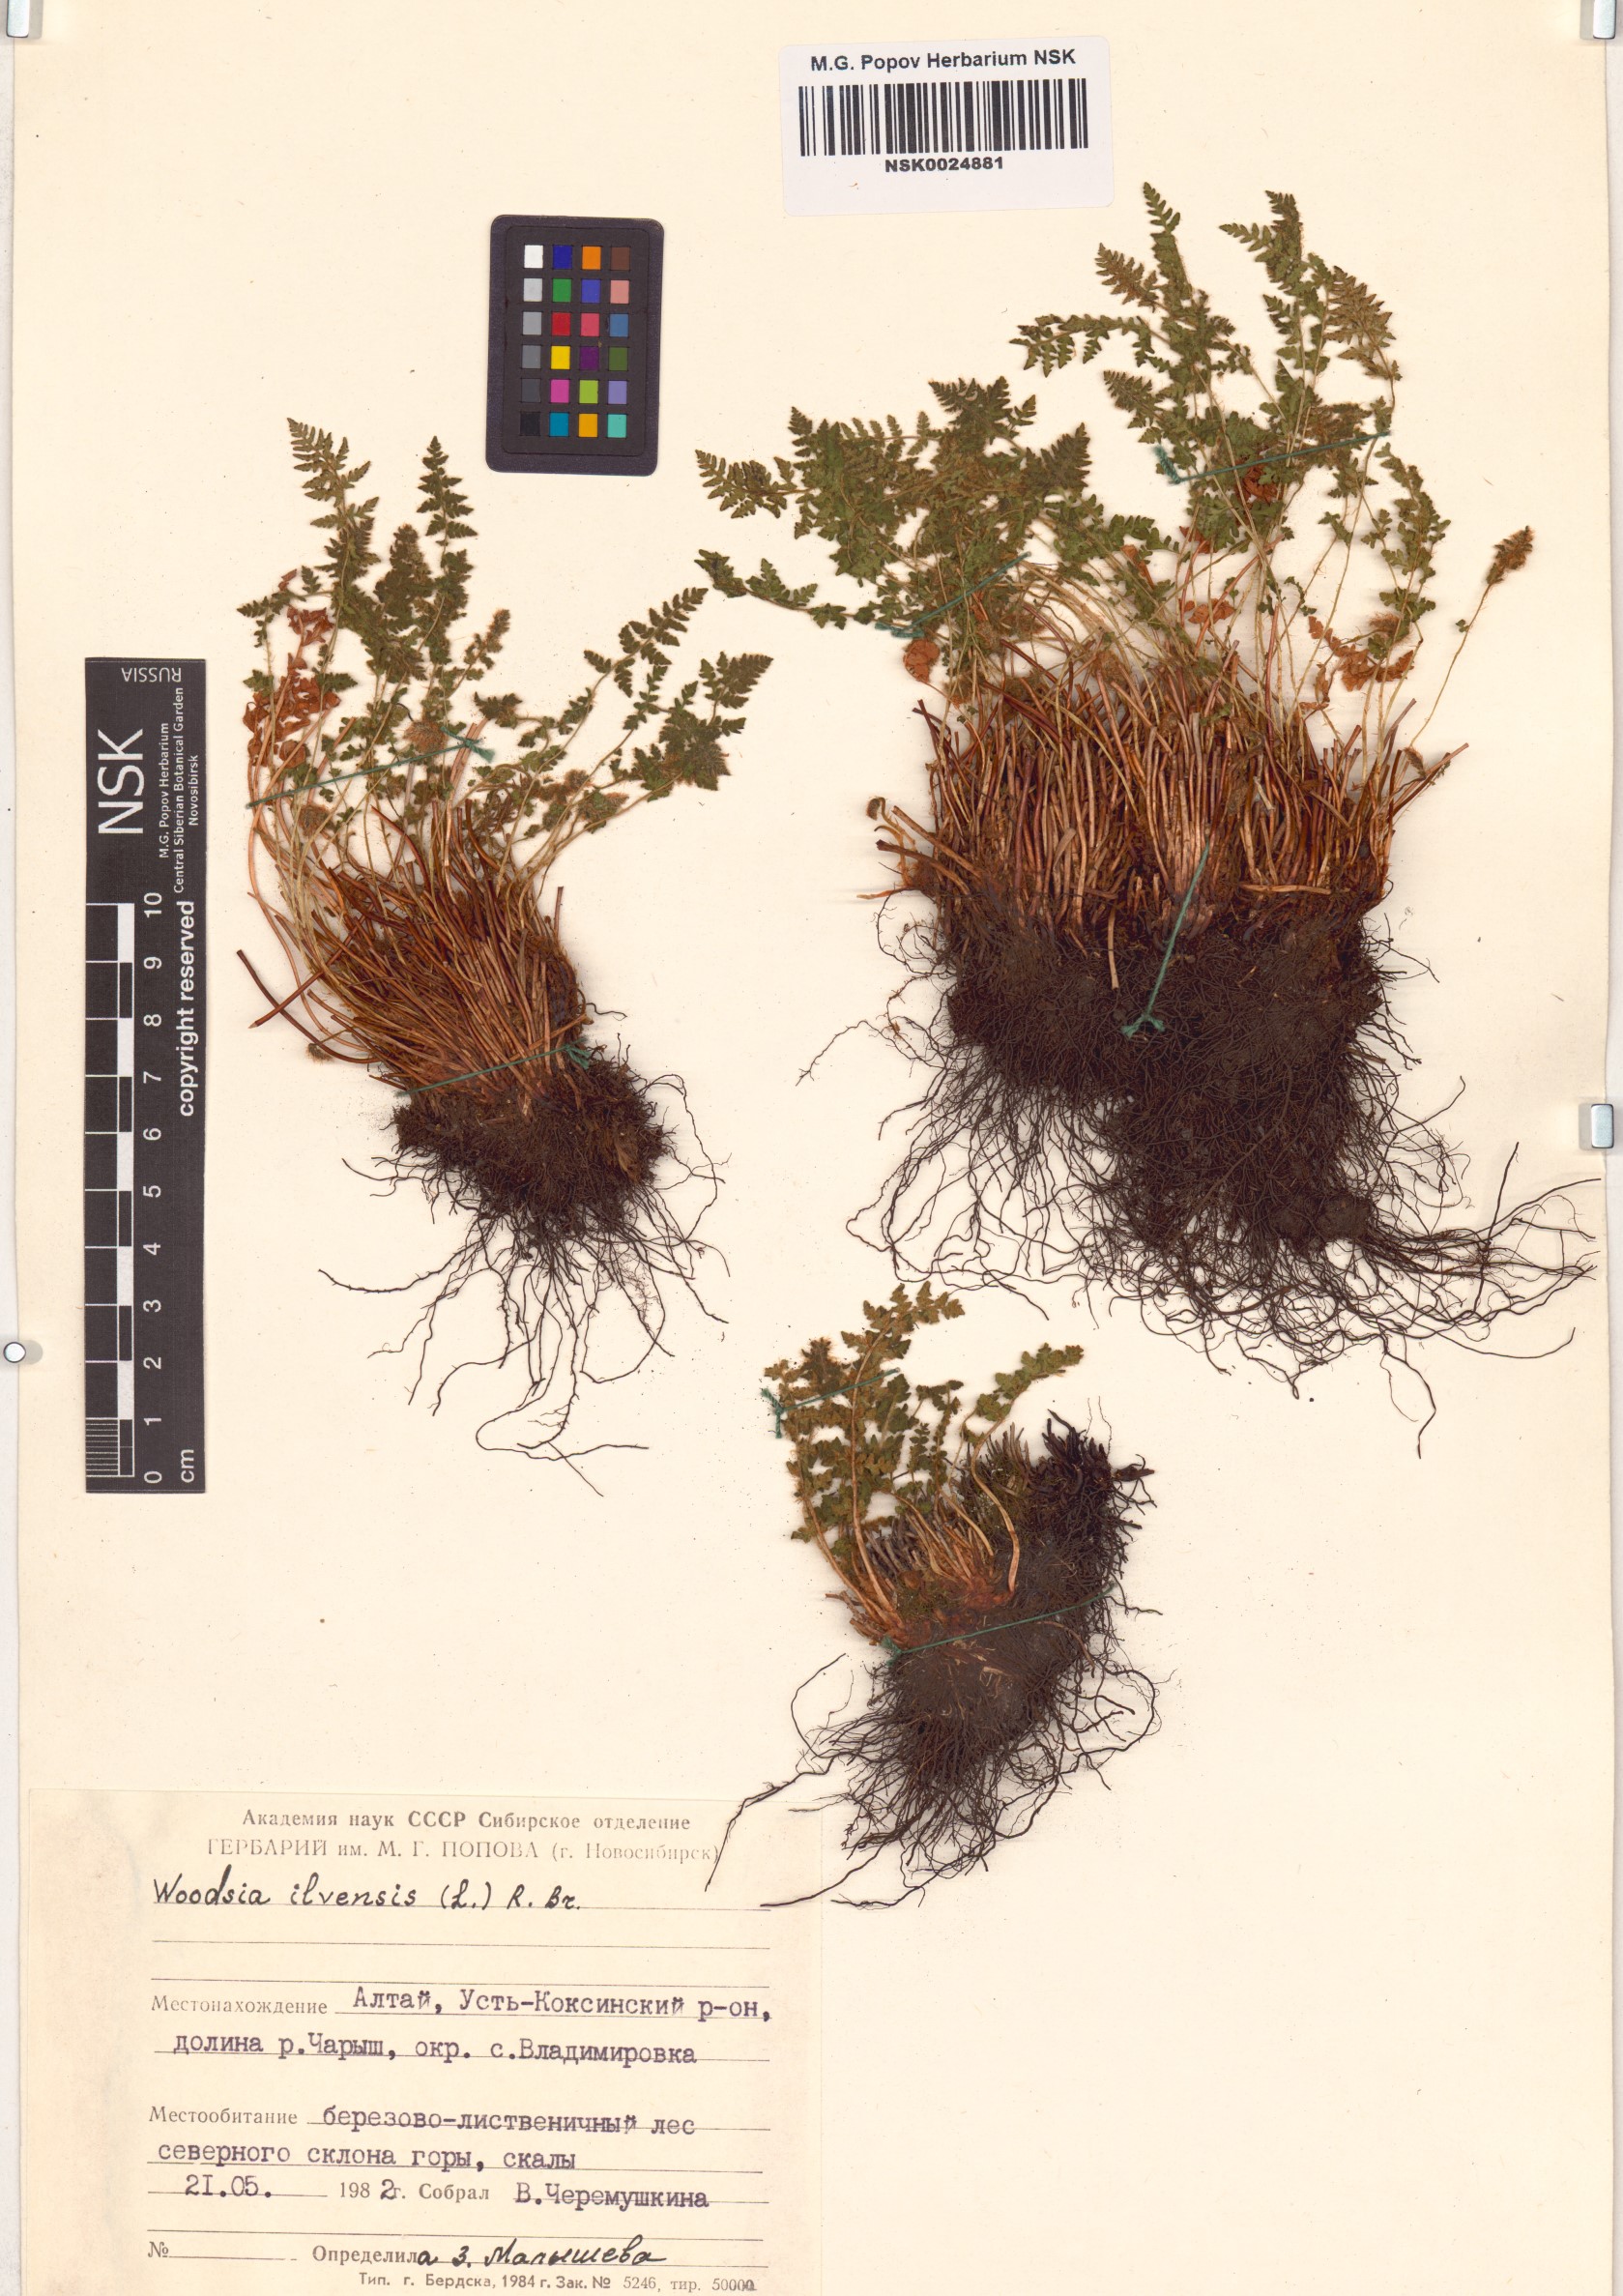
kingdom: Plantae
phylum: Tracheophyta
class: Polypodiopsida
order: Polypodiales
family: Woodsiaceae
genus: Woodsia
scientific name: Woodsia ilvensis
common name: Fragrant woodsia
